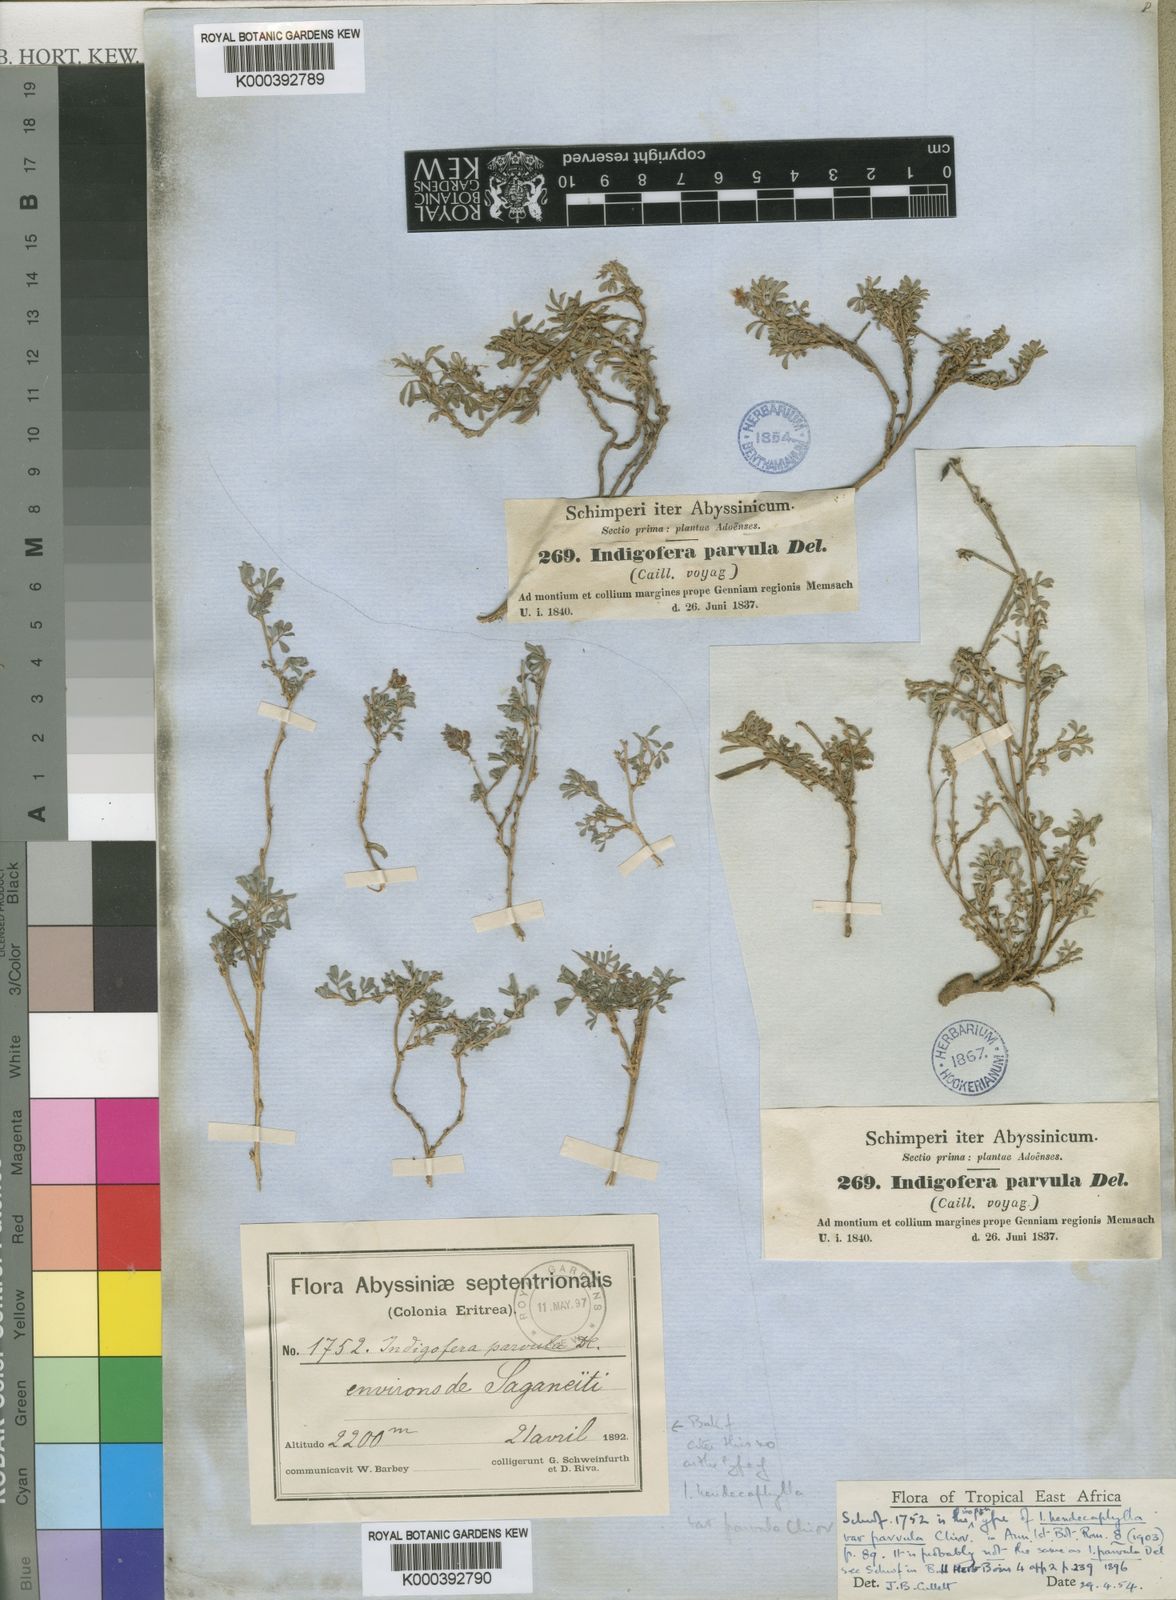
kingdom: Plantae
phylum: Tracheophyta
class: Magnoliopsida
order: Fabales
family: Fabaceae
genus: Indigofera
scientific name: Indigofera spicata
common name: Creeping indigo
